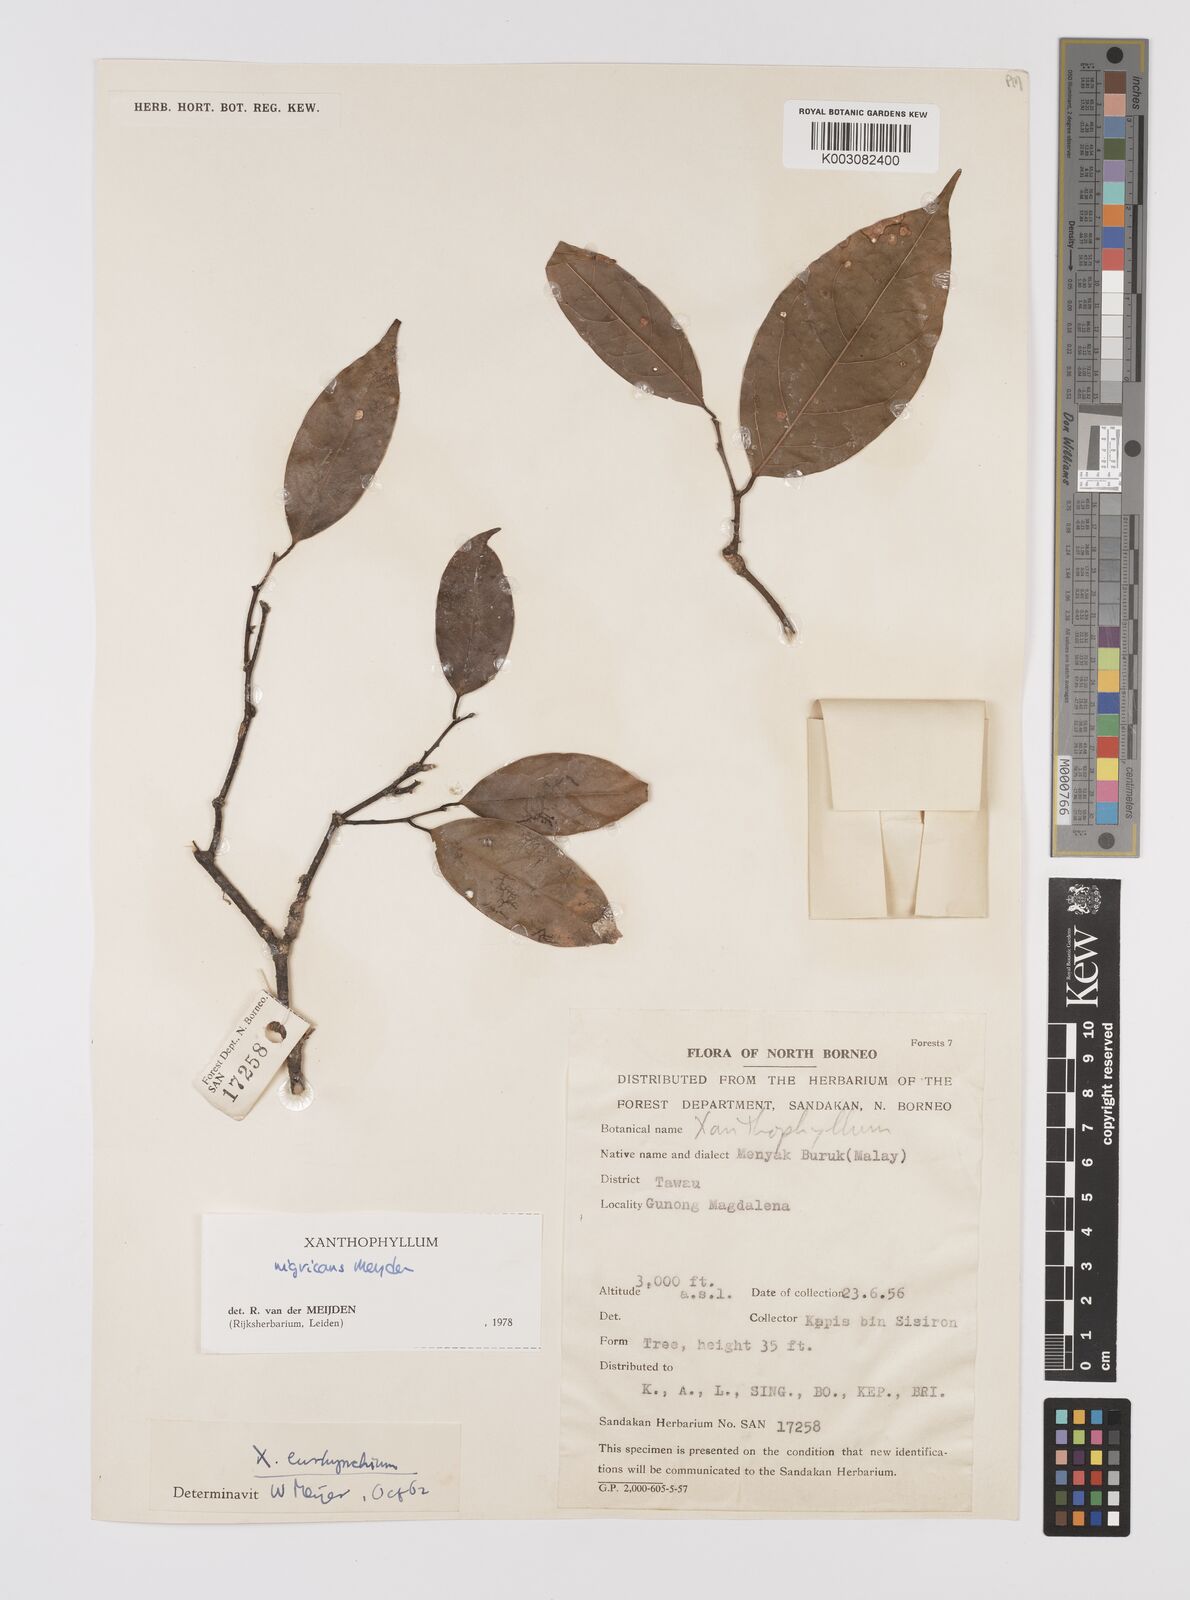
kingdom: Plantae
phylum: Tracheophyta
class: Magnoliopsida
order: Fabales
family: Polygalaceae
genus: Xanthophyllum
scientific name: Xanthophyllum nigricans
